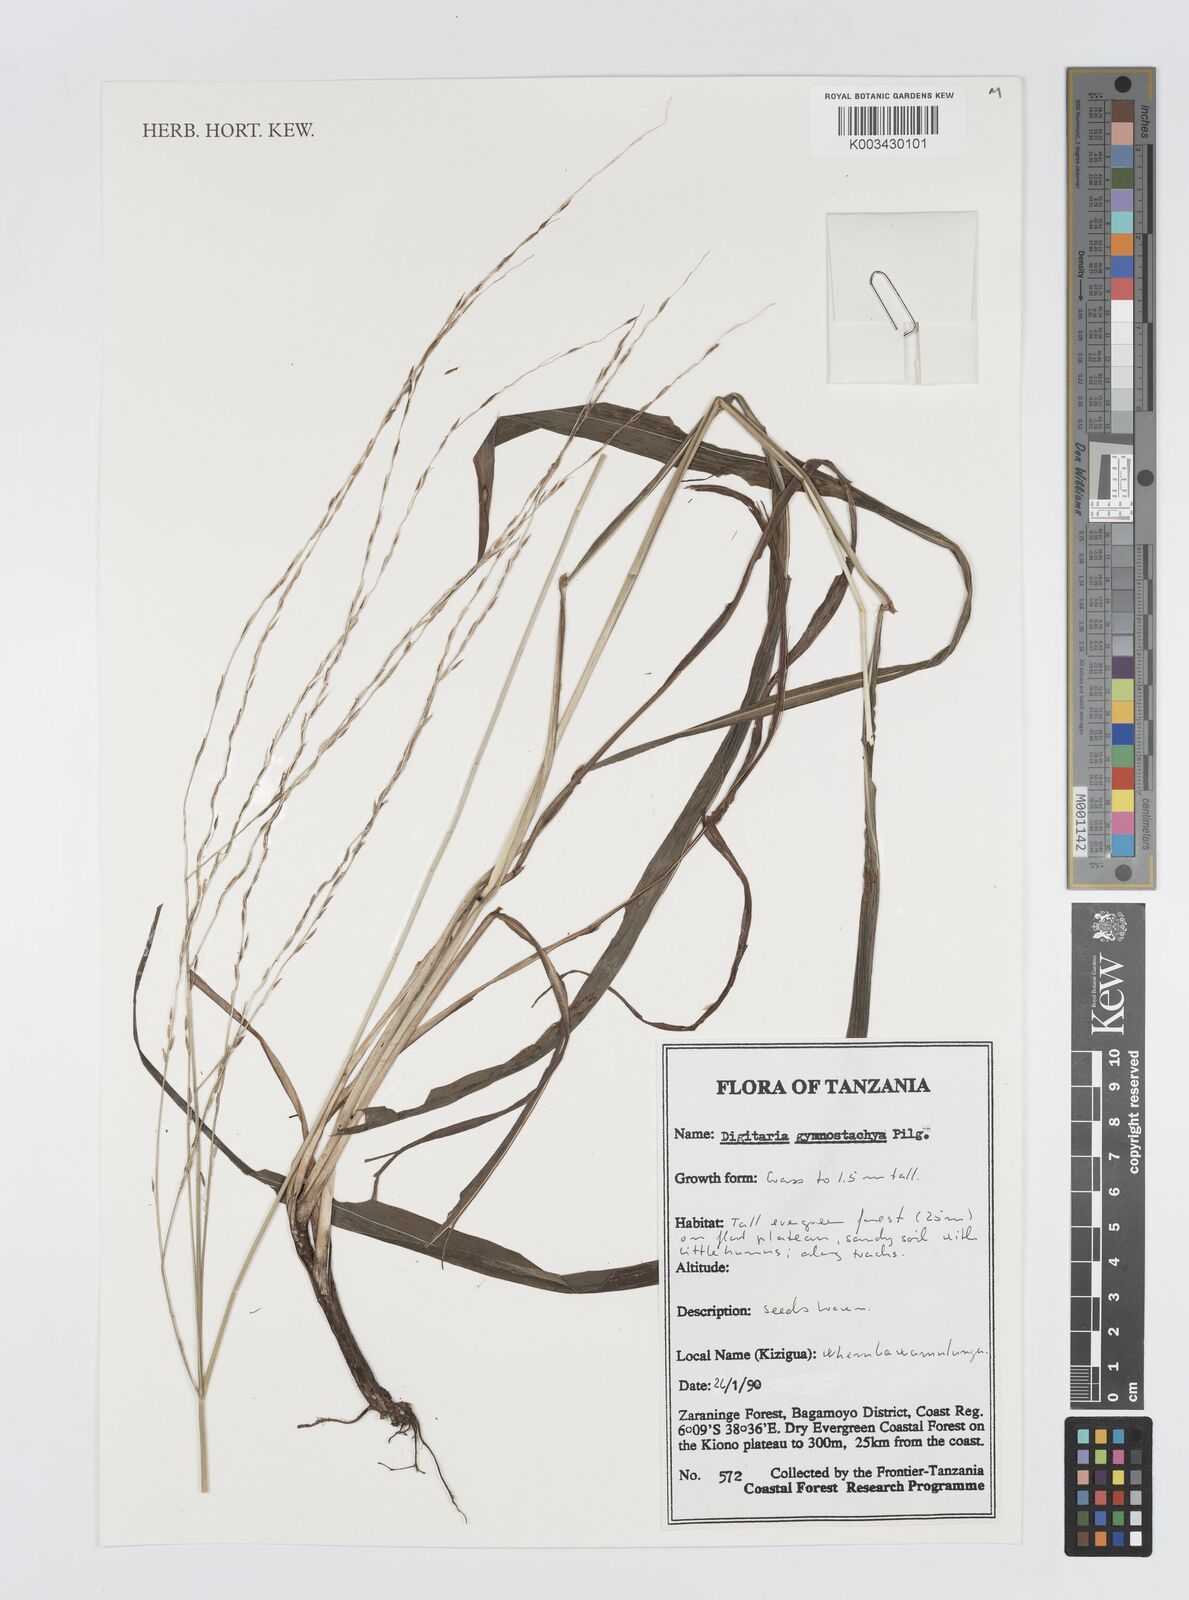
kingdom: Plantae
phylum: Tracheophyta
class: Liliopsida
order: Poales
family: Poaceae
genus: Digitaria
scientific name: Digitaria gymnostachys
